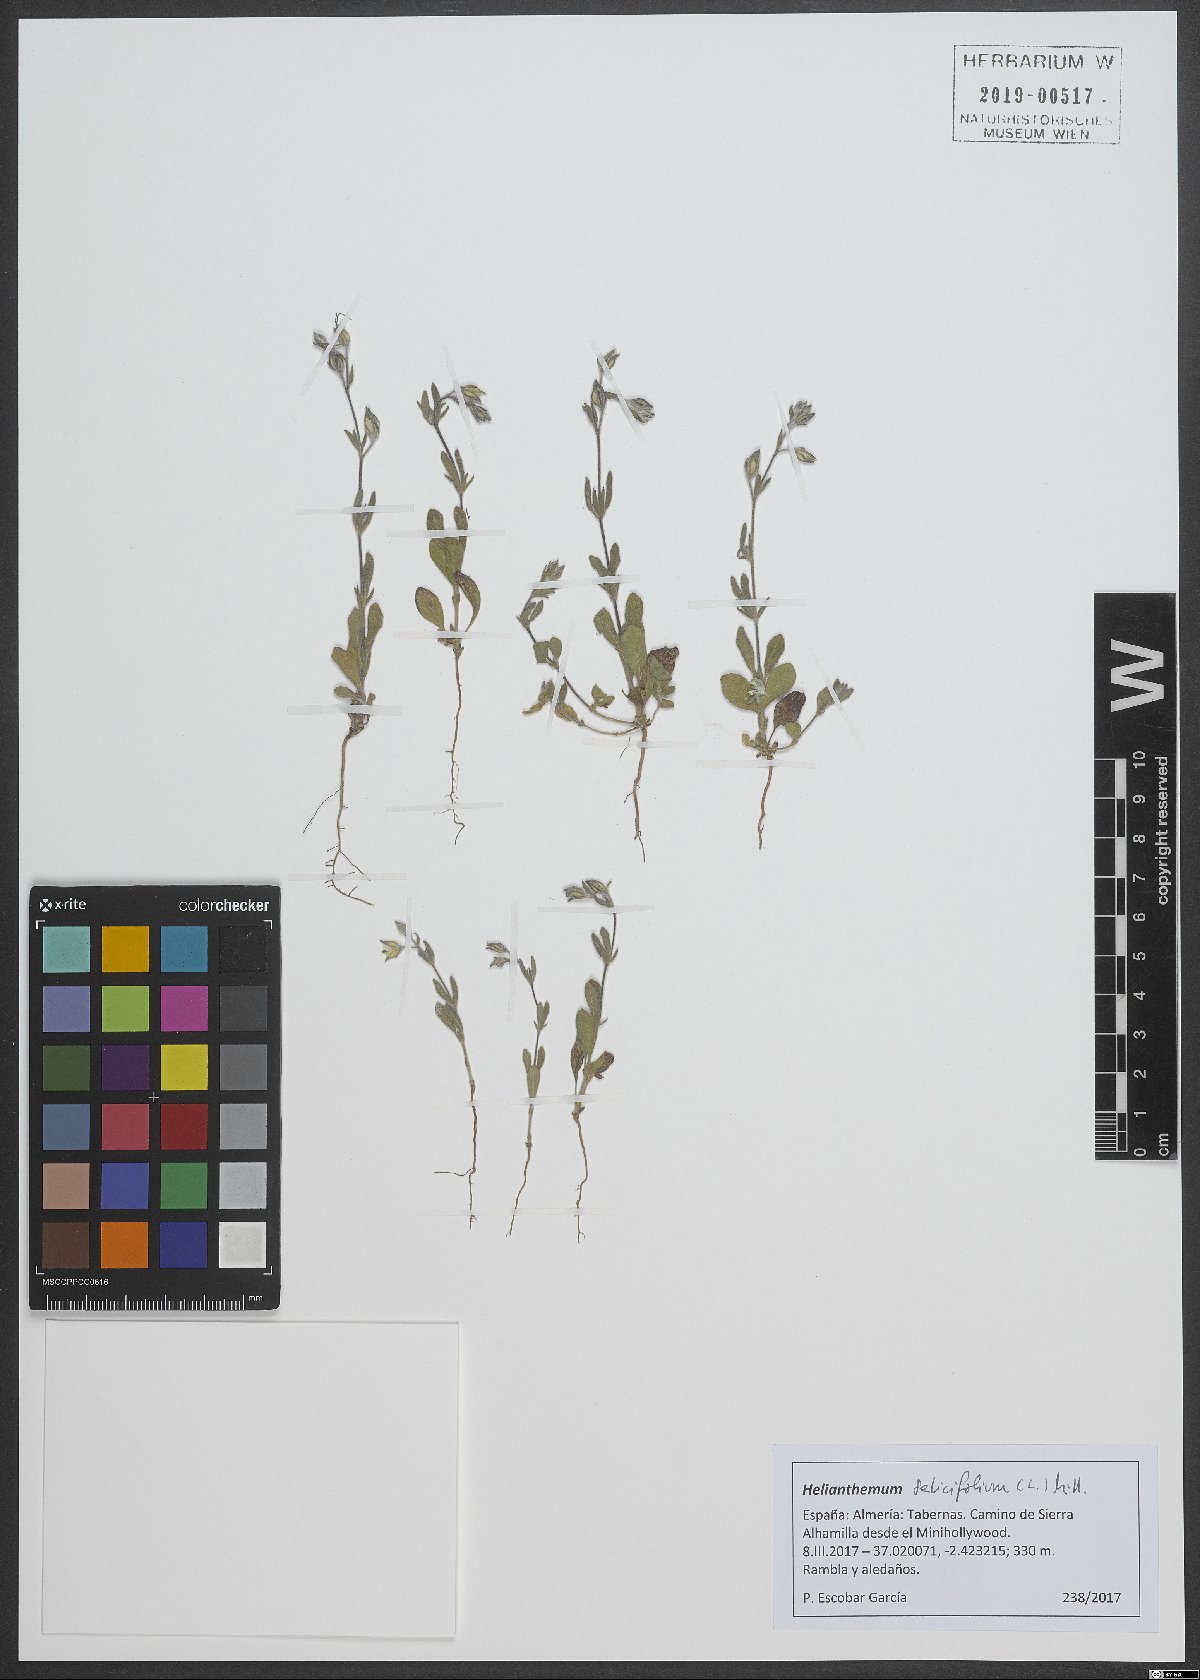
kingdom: Plantae
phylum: Tracheophyta
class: Magnoliopsida
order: Malvales
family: Cistaceae
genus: Helianthemum
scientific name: Helianthemum salicifolium
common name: Willowleaf frostweed
